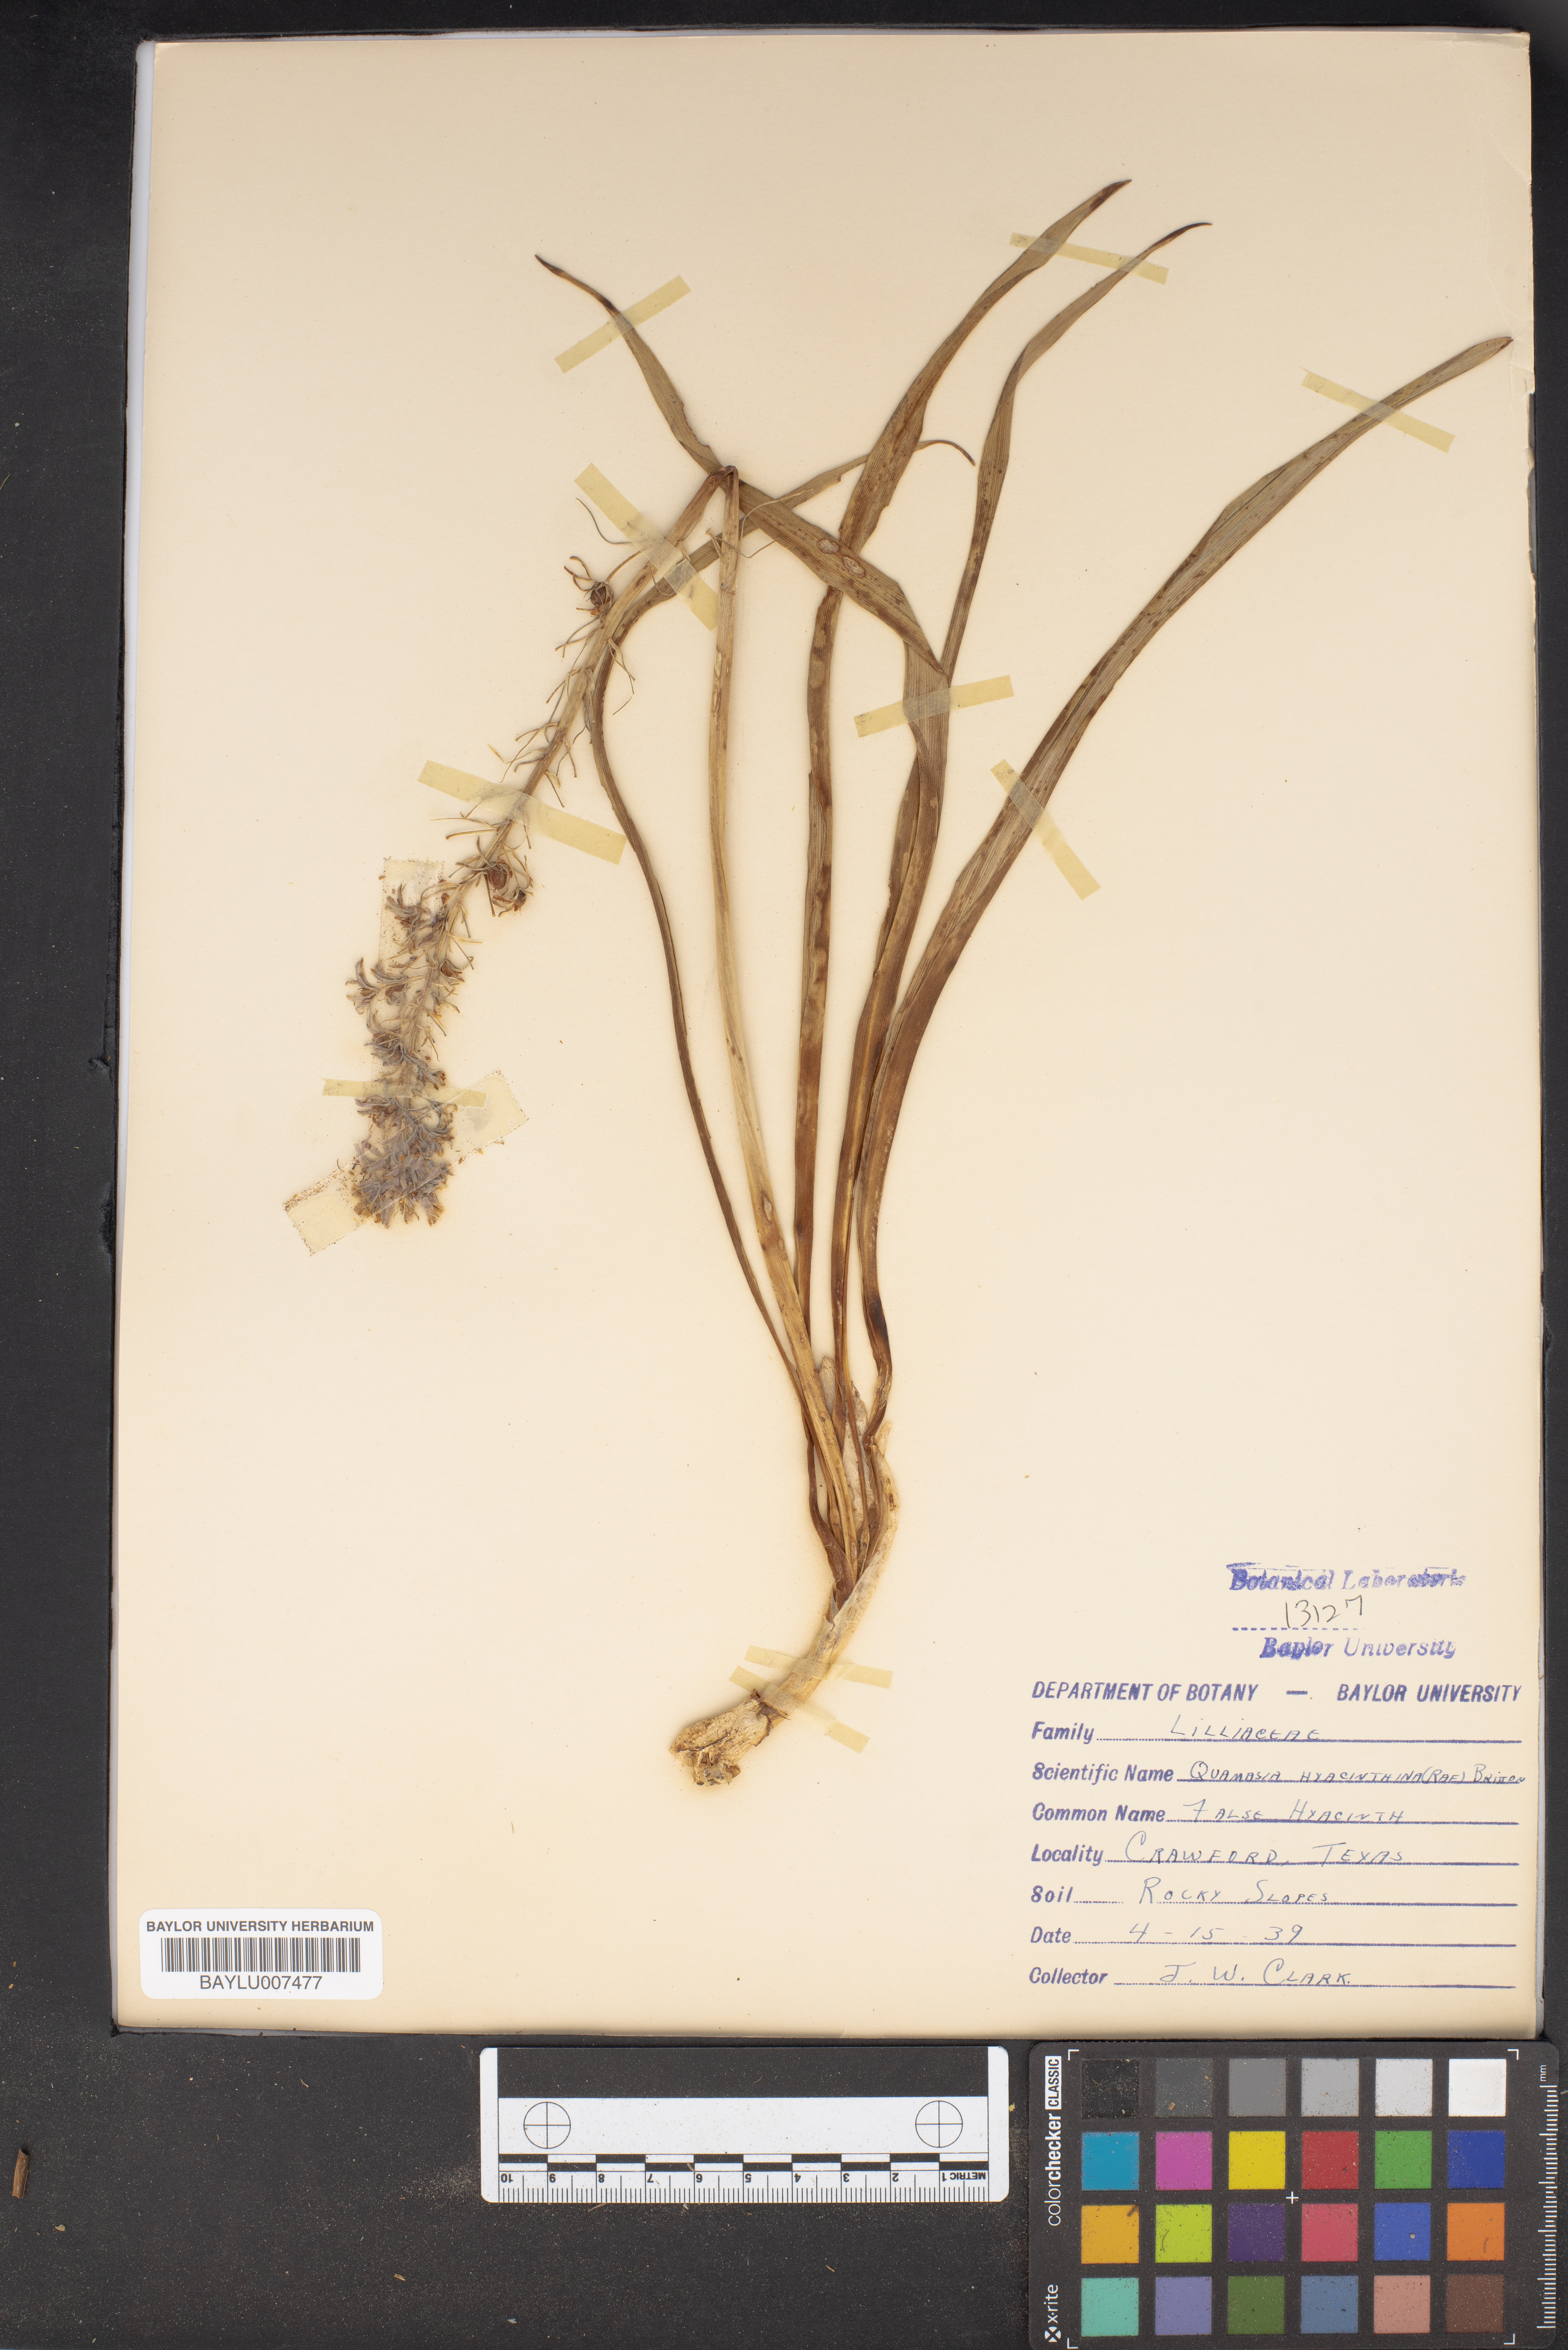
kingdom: Plantae
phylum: Tracheophyta
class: Liliopsida
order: Asparagales
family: Asparagaceae
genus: Camassia
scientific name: Camassia scilloides
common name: Wild hyacinth
